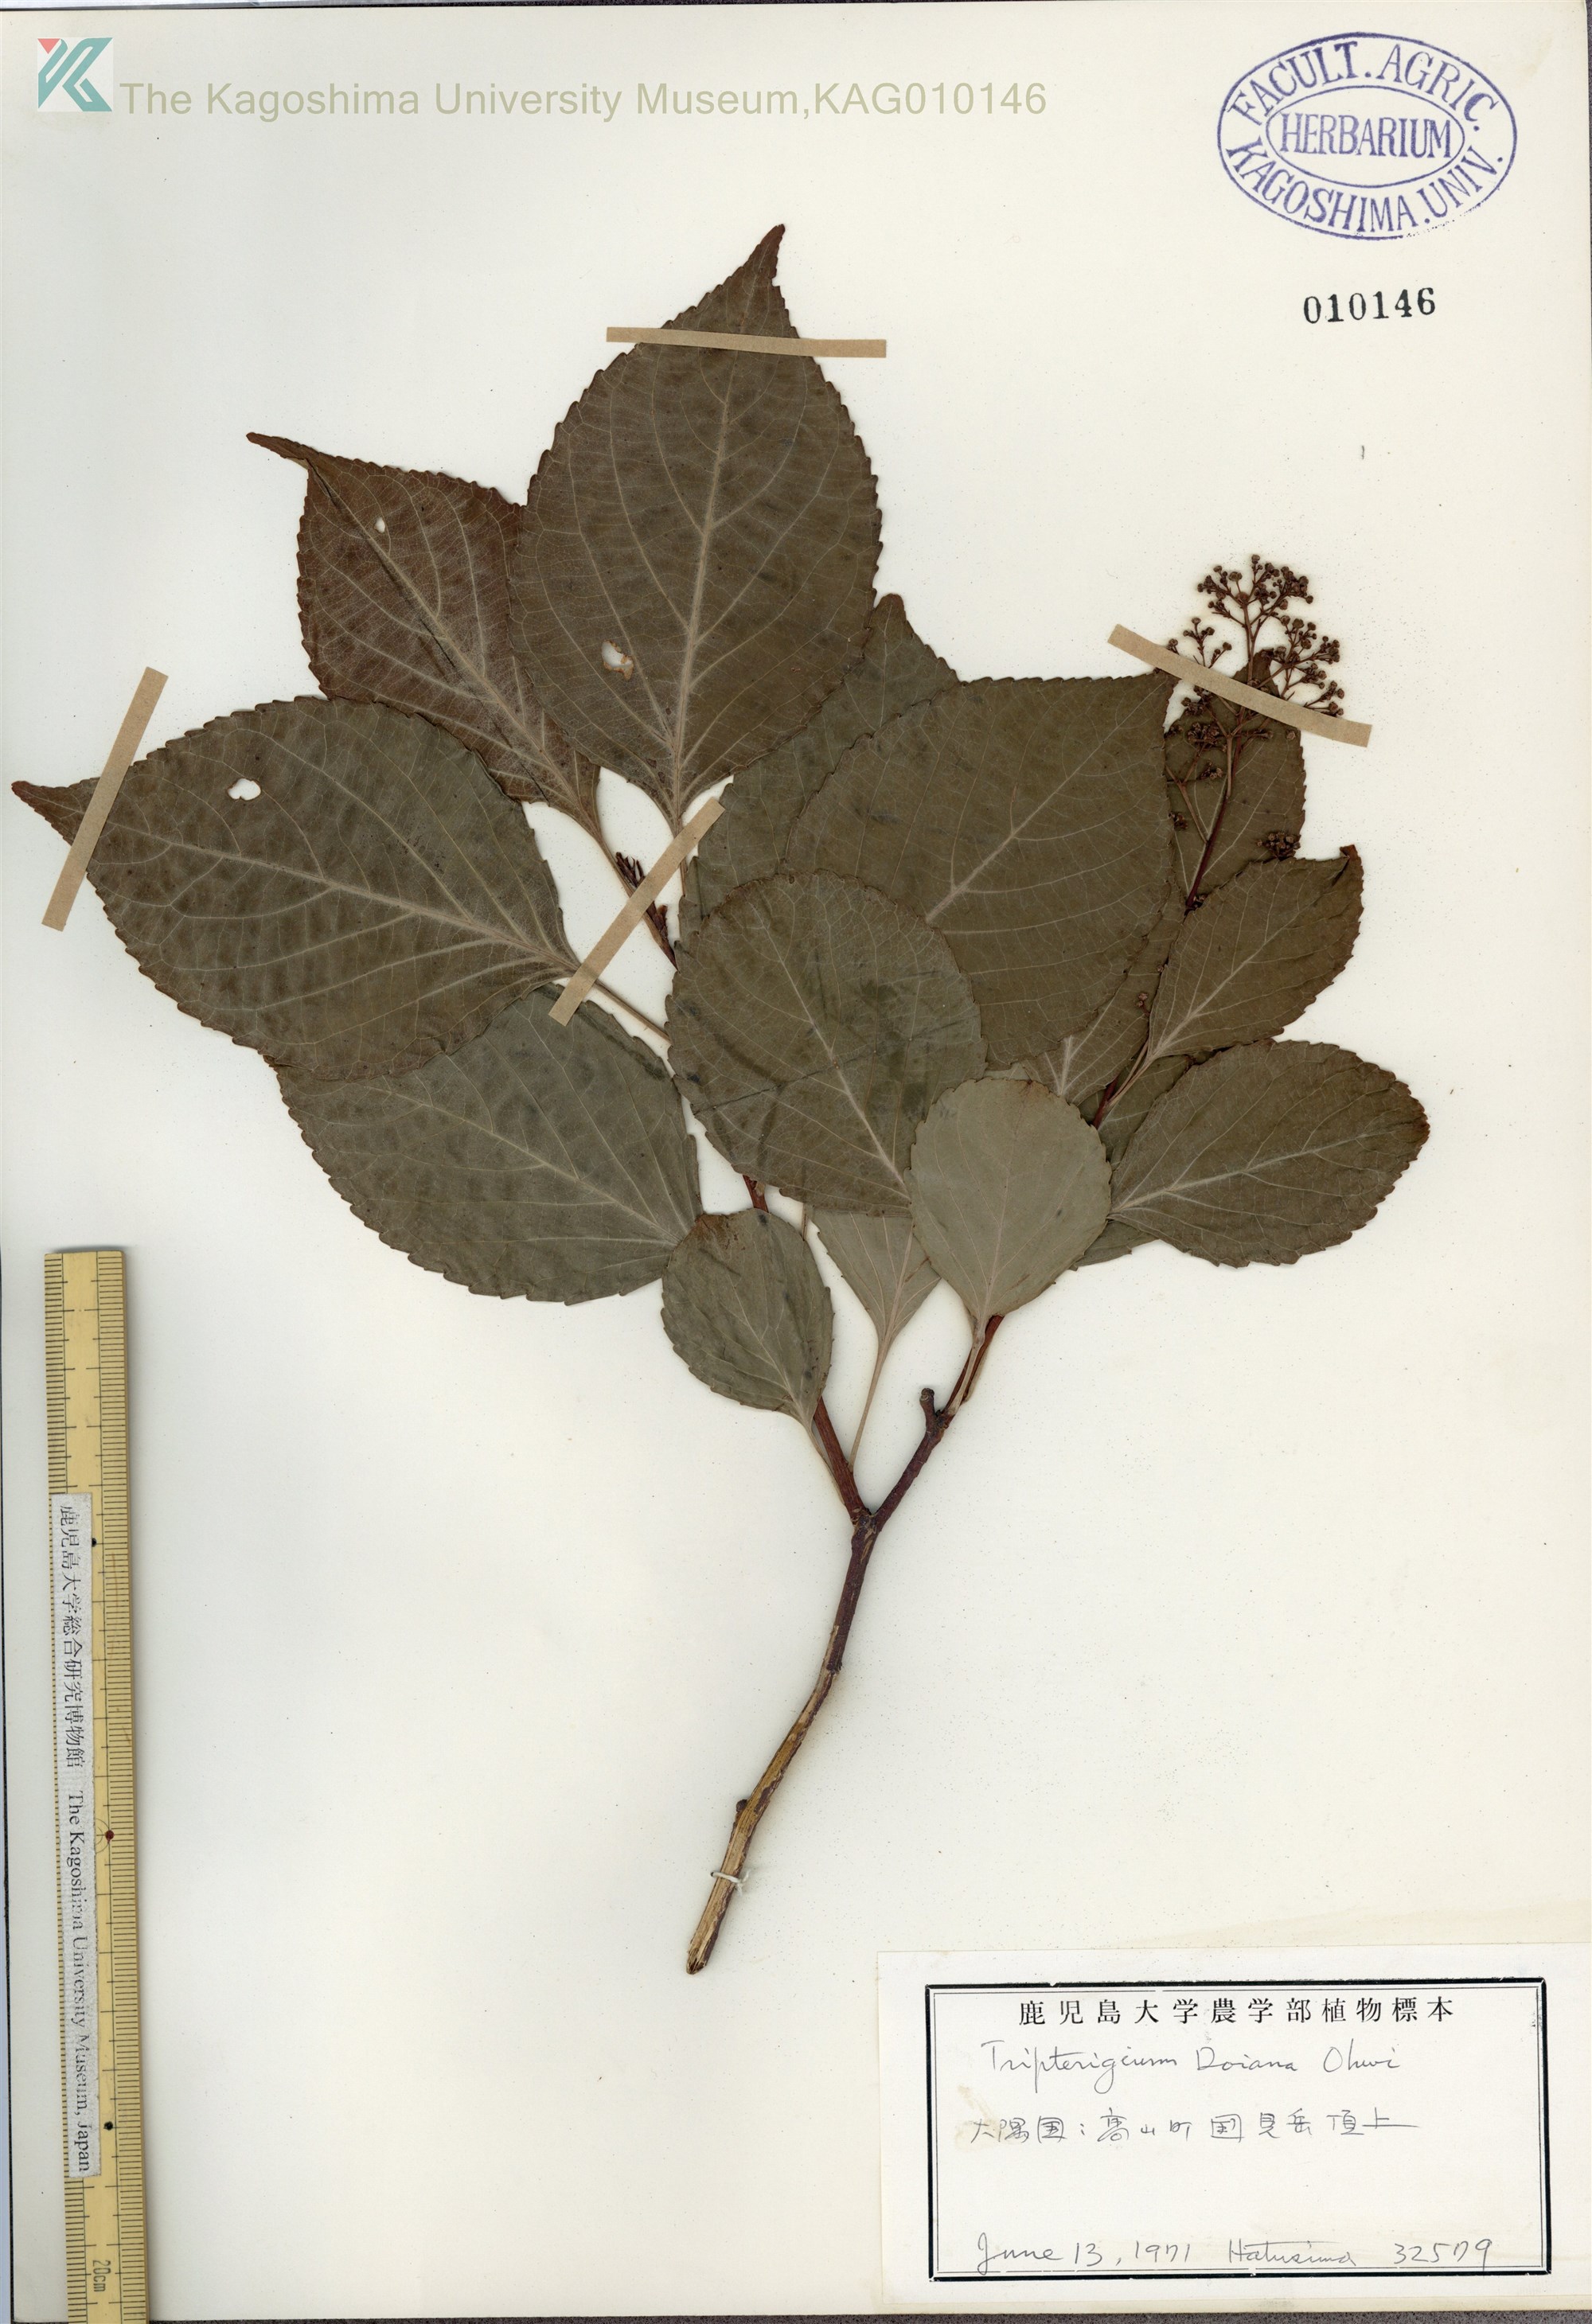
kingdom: Plantae
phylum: Tracheophyta
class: Magnoliopsida
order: Celastrales
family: Celastraceae
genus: Tripterygium
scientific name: Tripterygium doianum
